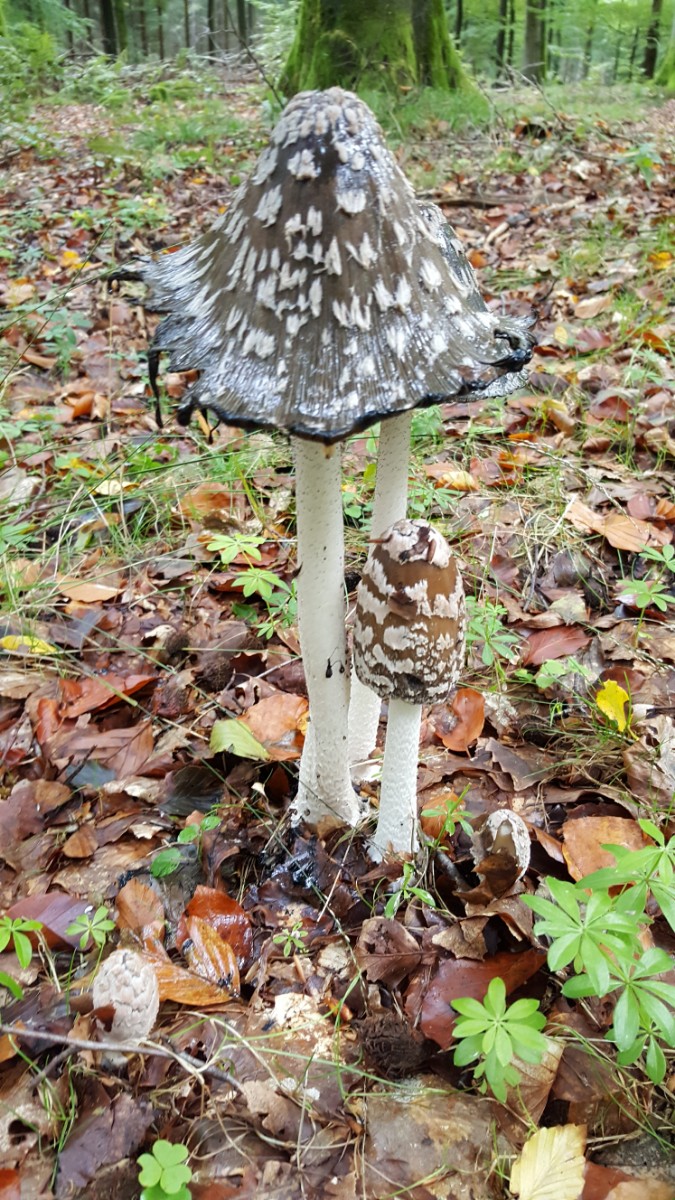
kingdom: Fungi
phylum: Basidiomycota
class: Agaricomycetes
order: Agaricales
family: Psathyrellaceae
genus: Coprinopsis
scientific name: Coprinopsis picacea
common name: skade-blækhat
